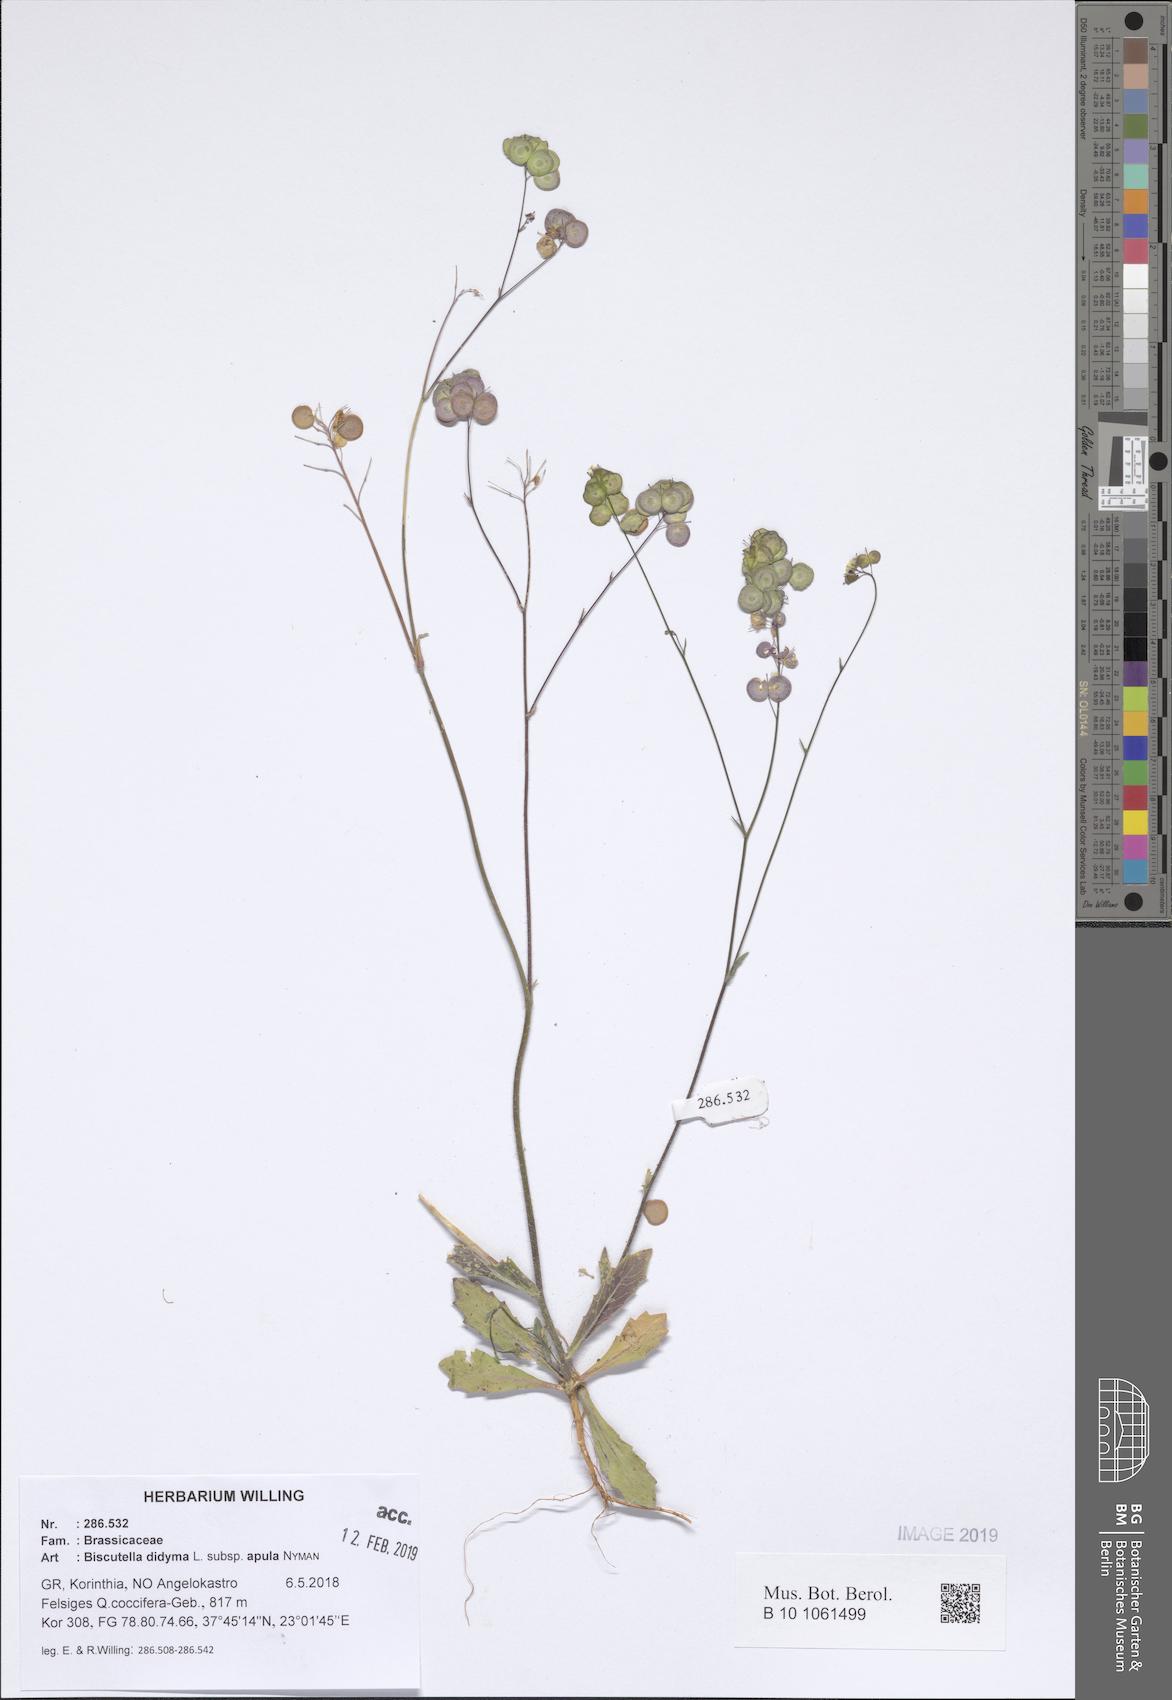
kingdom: Plantae
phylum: Tracheophyta
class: Magnoliopsida
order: Brassicales
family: Brassicaceae
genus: Biscutella
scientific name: Biscutella didyma
